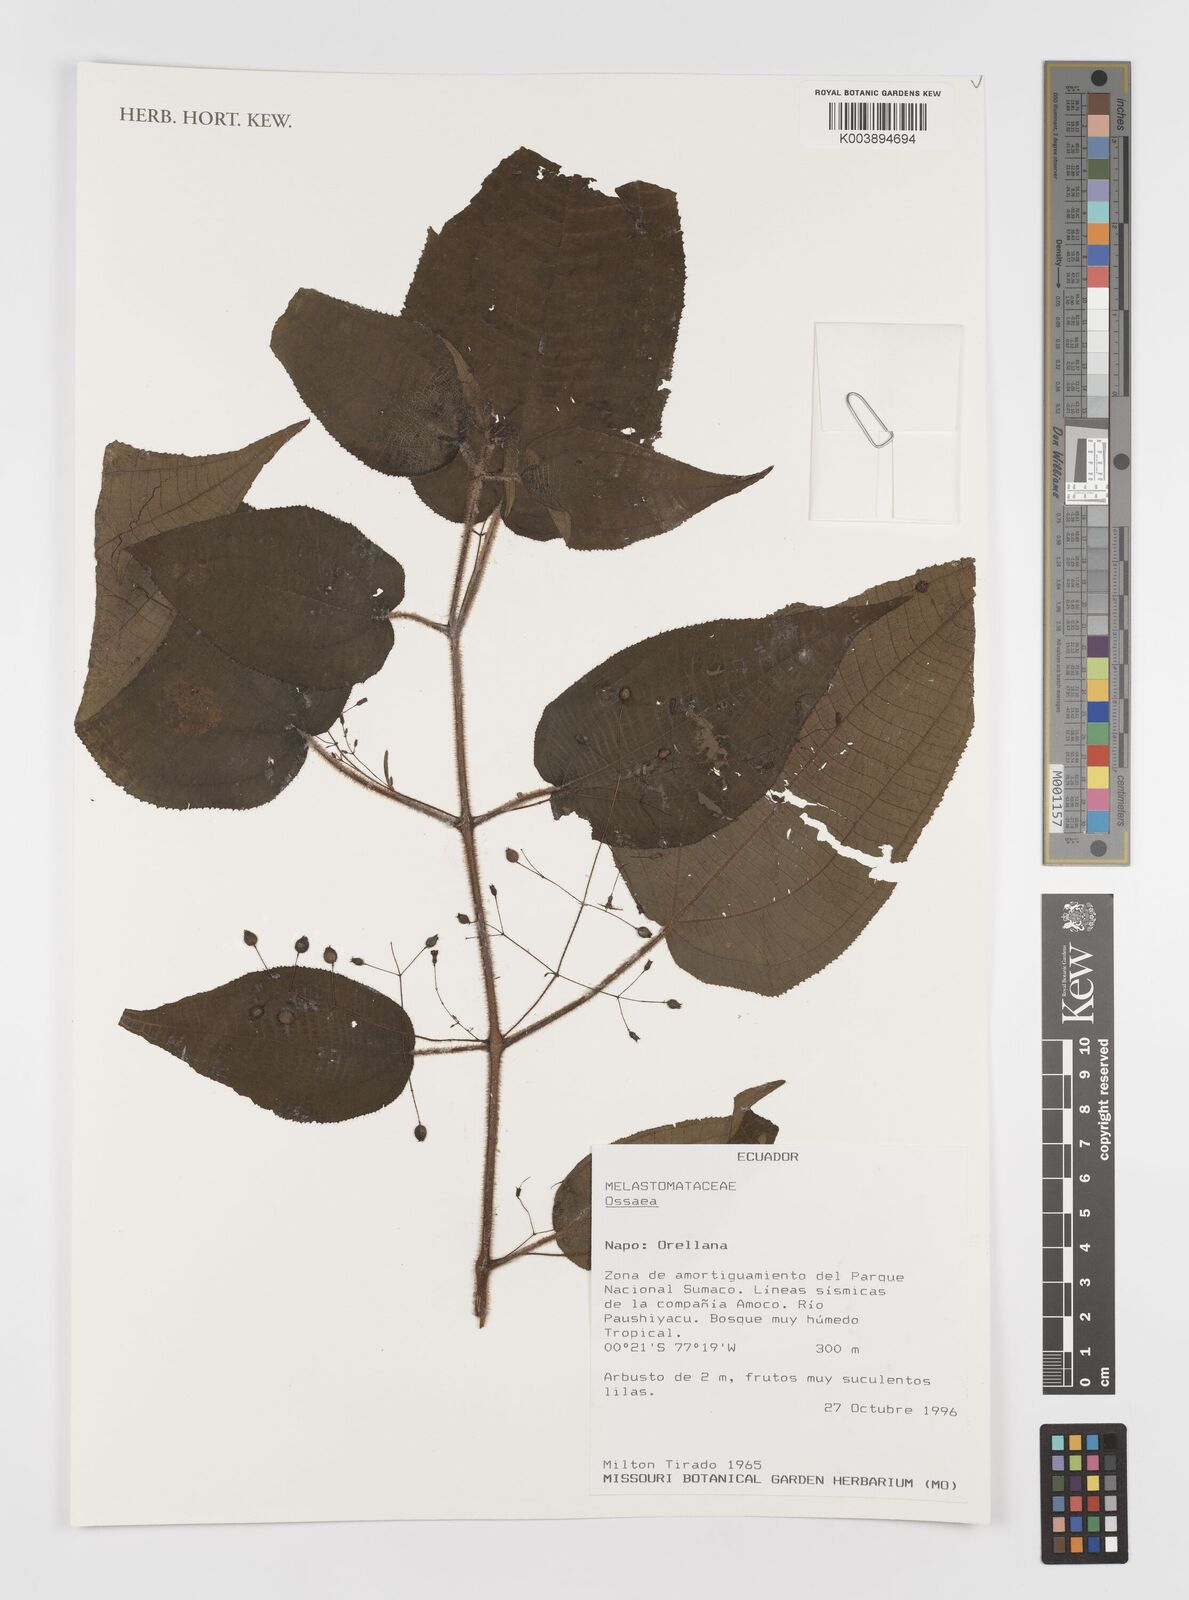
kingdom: Plantae
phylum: Tracheophyta
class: Magnoliopsida
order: Myrtales
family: Melastomataceae
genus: Ossaea
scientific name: Ossaea
